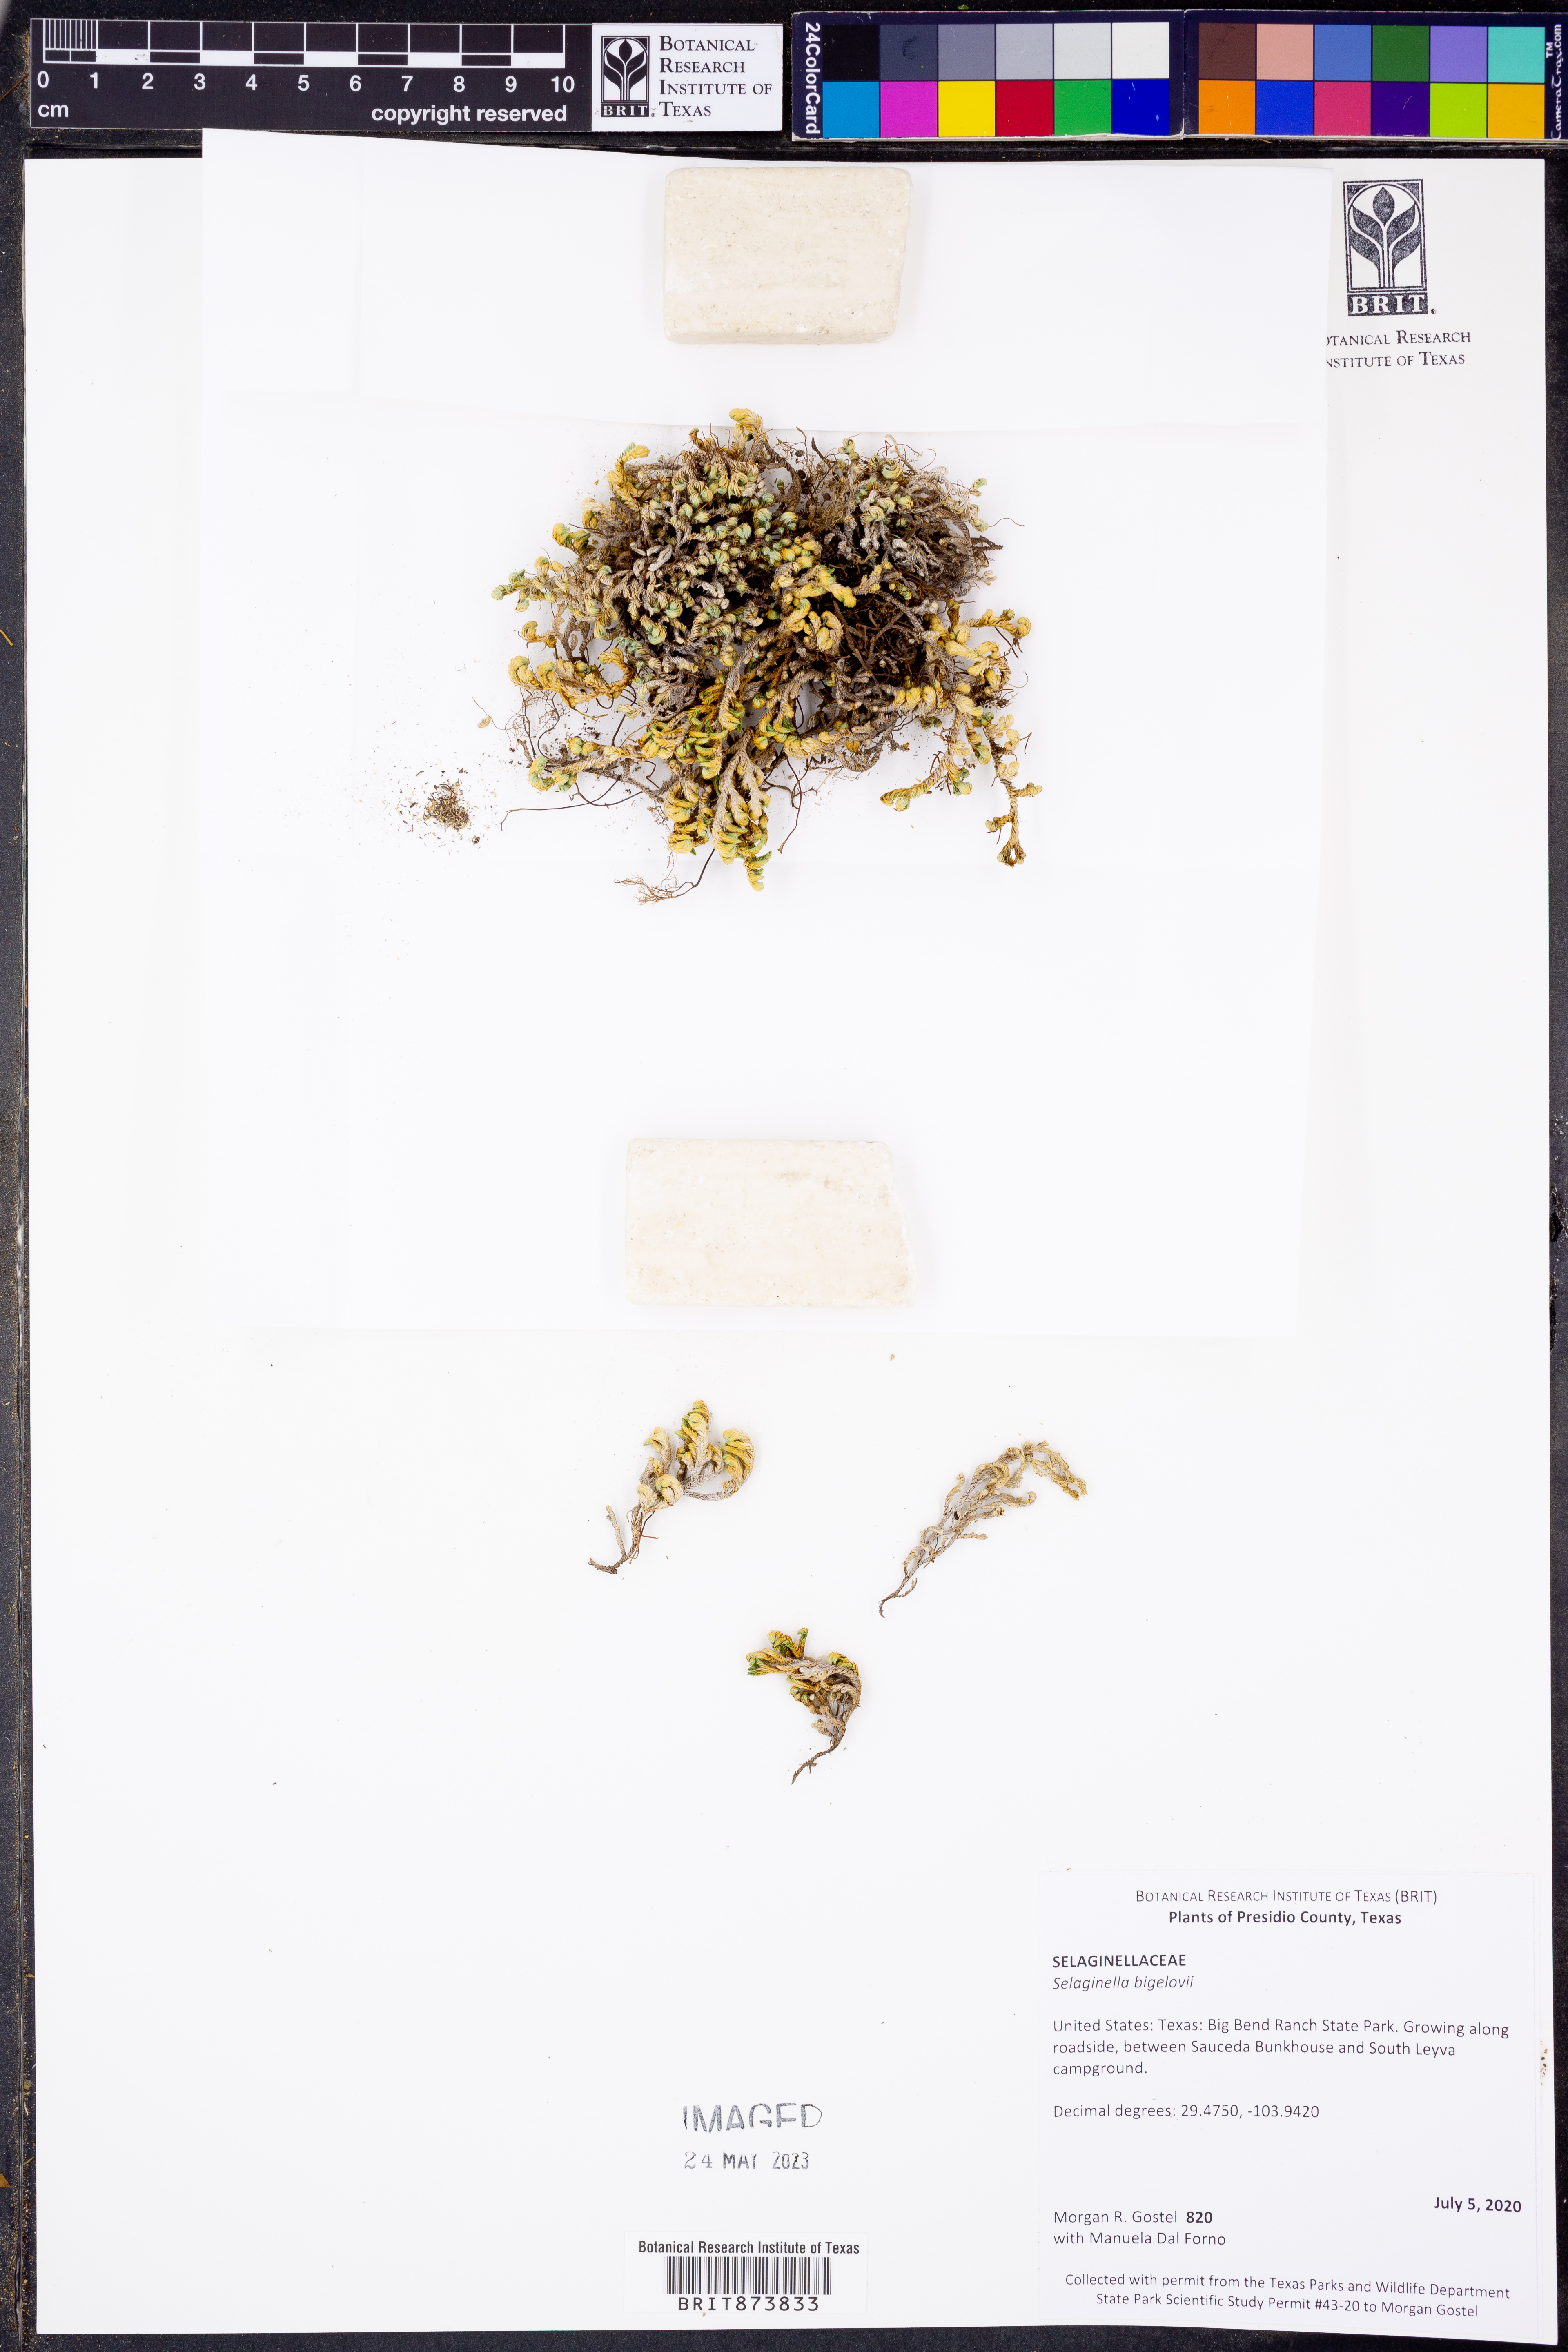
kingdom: Plantae
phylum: Tracheophyta
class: Lycopodiopsida
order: Selaginellales
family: Selaginellaceae
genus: Selaginella
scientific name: Selaginella bigelovii
